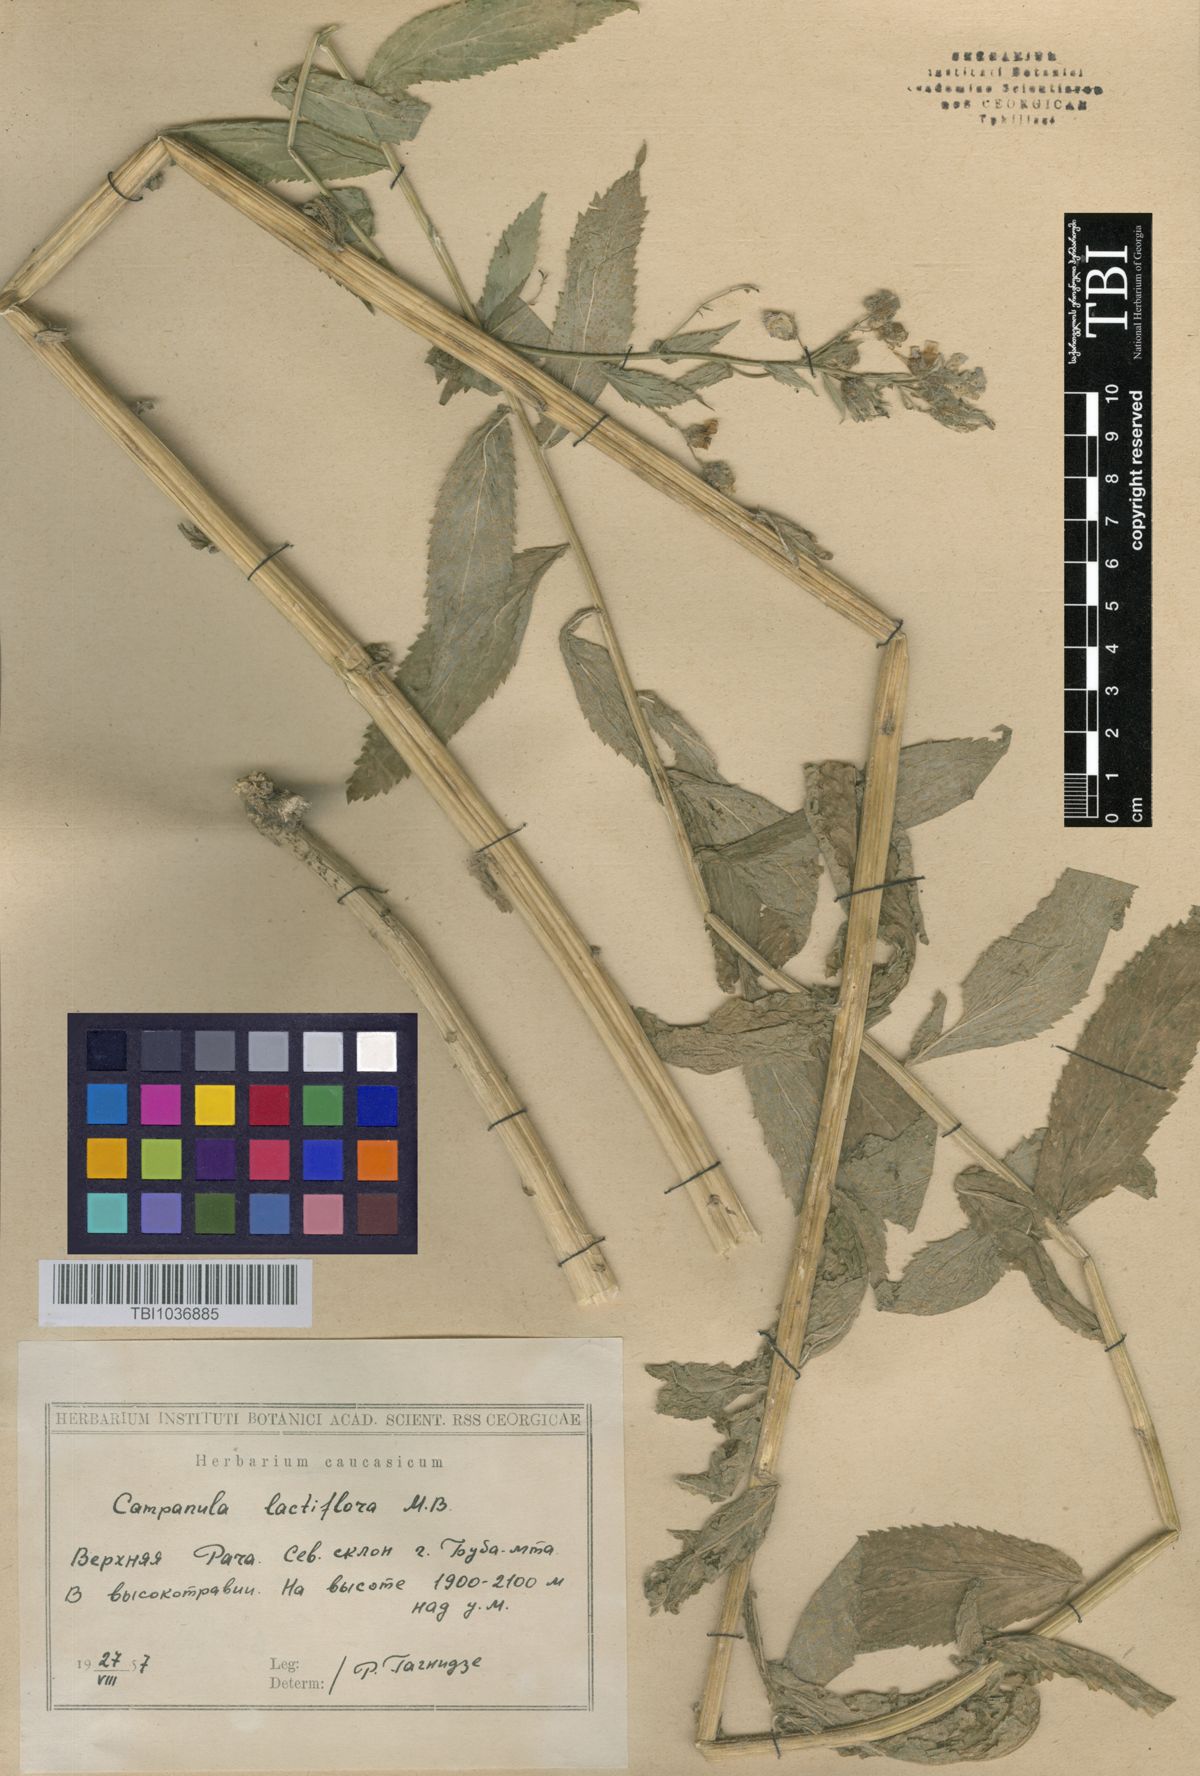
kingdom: Plantae
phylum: Tracheophyta
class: Magnoliopsida
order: Asterales
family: Campanulaceae
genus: Campanula
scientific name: Campanula lactiflora
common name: Milky bellflower
